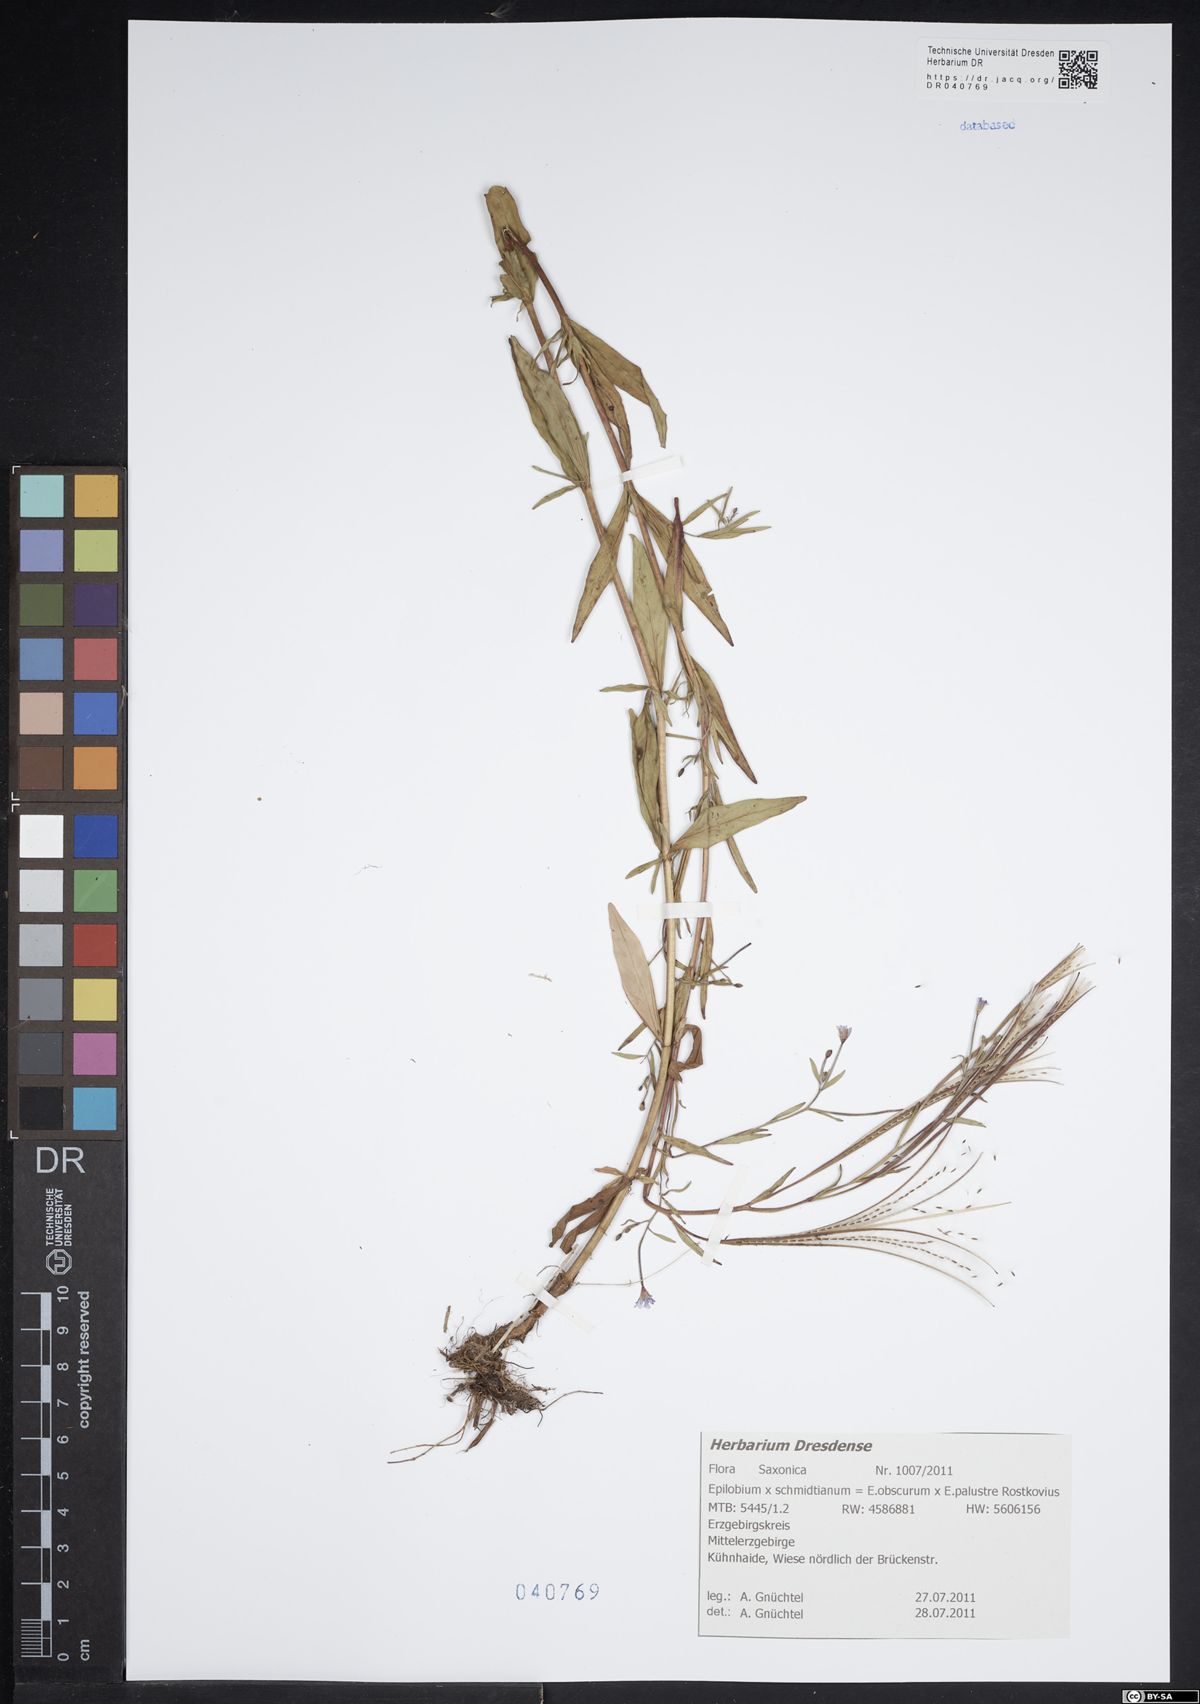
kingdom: Plantae
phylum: Tracheophyta
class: Magnoliopsida
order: Myrtales
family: Onagraceae
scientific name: Onagraceae
